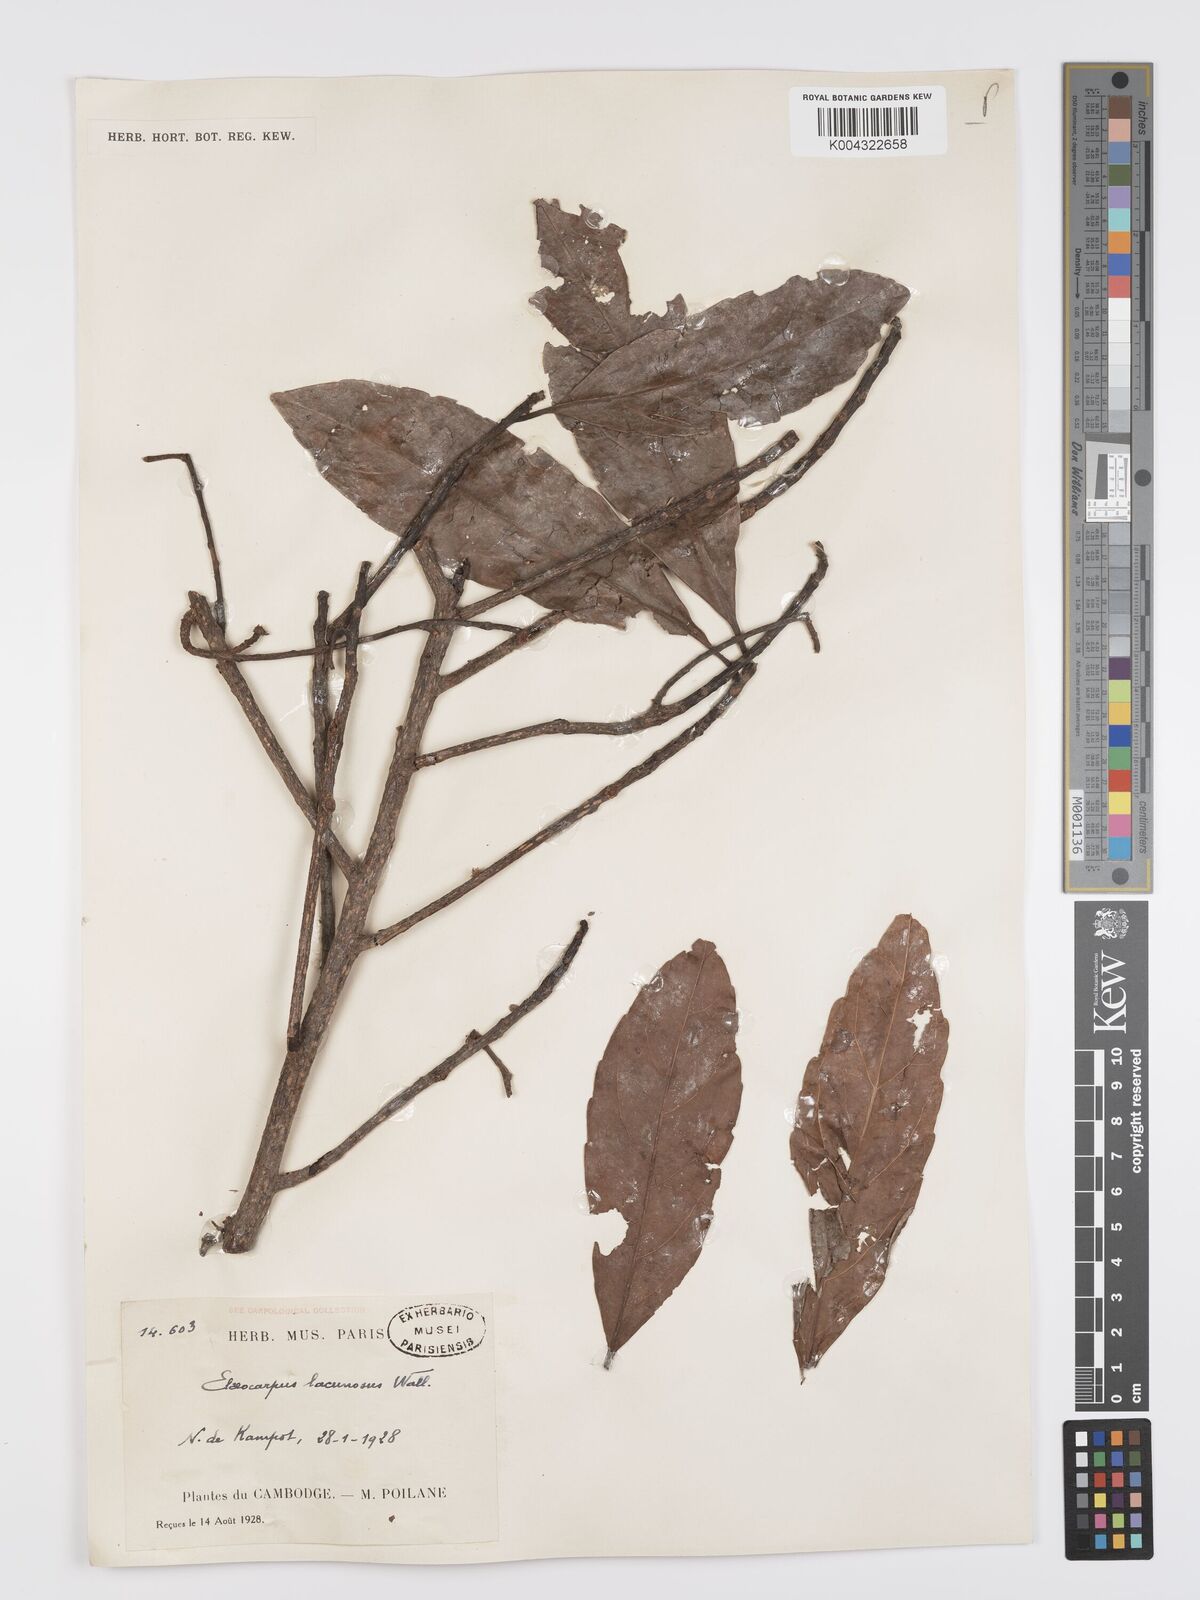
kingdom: Plantae
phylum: Tracheophyta
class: Magnoliopsida
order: Oxalidales
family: Elaeocarpaceae
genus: Elaeocarpus
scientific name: Elaeocarpus lanceifolius
